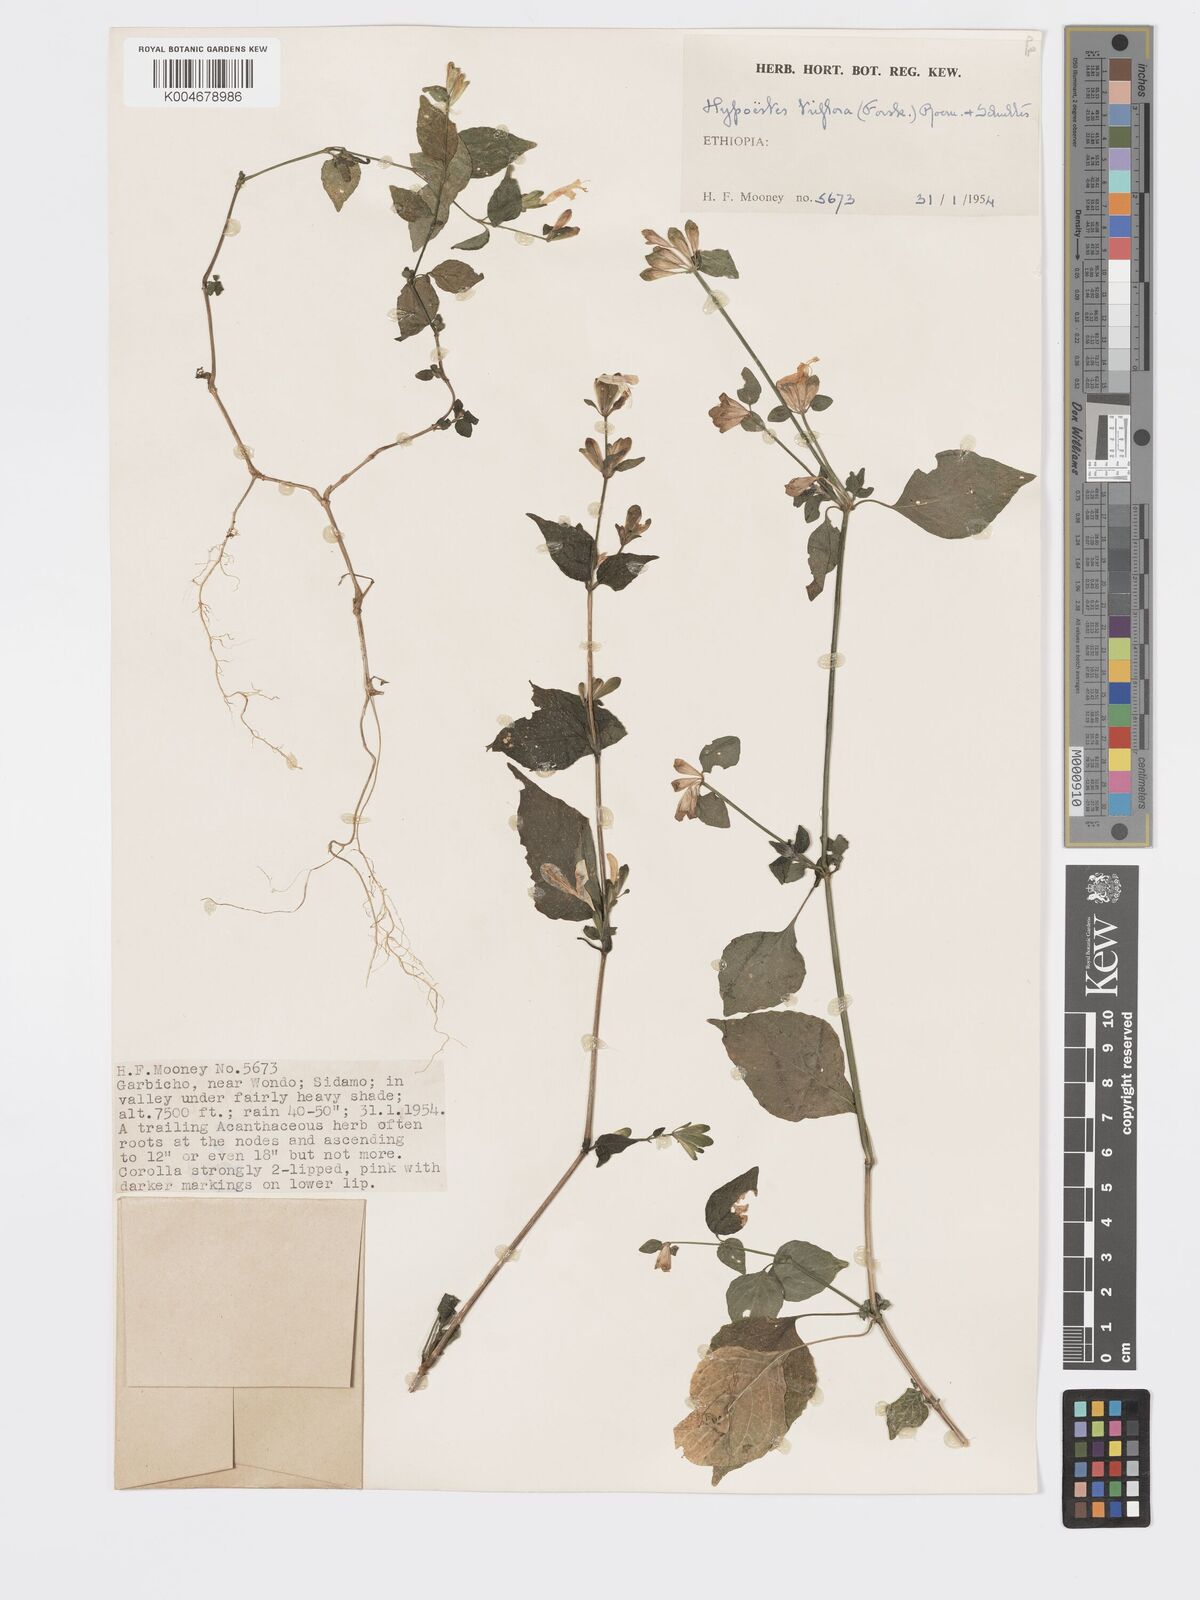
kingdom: Plantae
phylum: Tracheophyta
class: Magnoliopsida
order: Lamiales
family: Acanthaceae
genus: Hypoestes
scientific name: Hypoestes triflora
